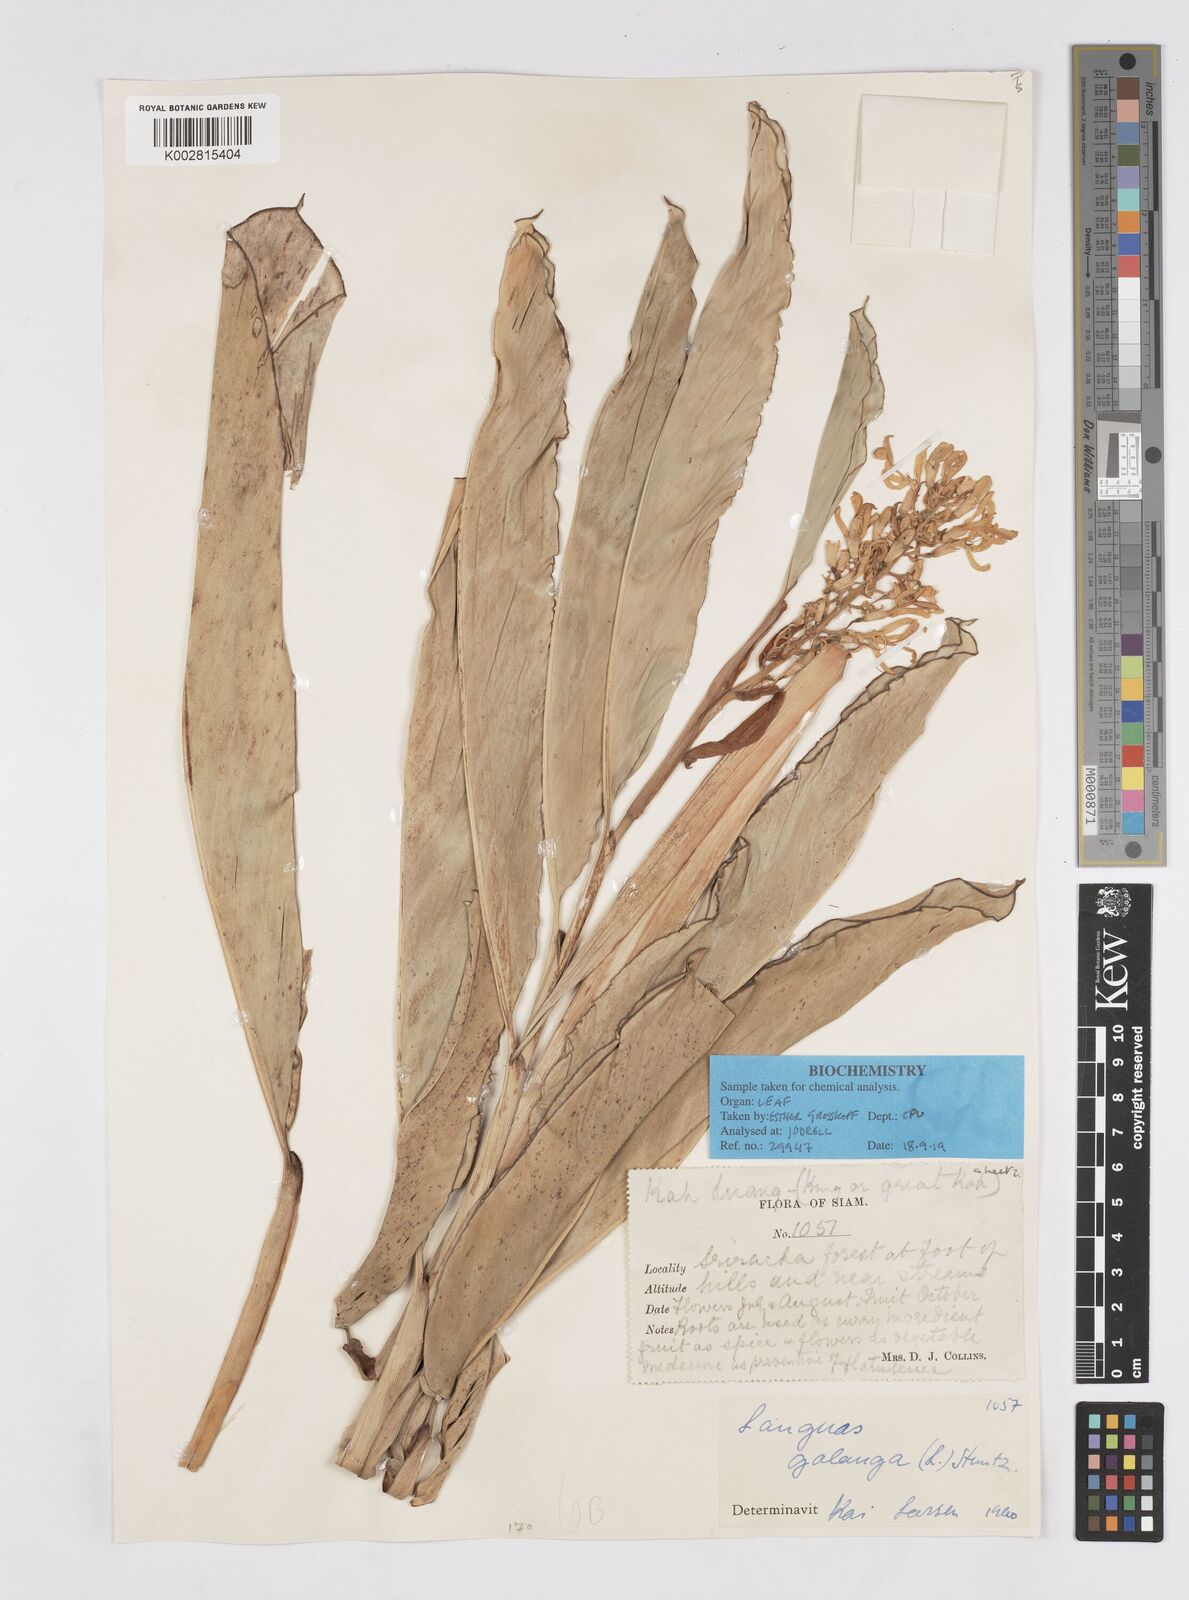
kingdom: Plantae
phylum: Tracheophyta
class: Liliopsida
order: Zingiberales
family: Zingiberaceae
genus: Alpinia
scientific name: Alpinia galanga
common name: Siamese-ginger
